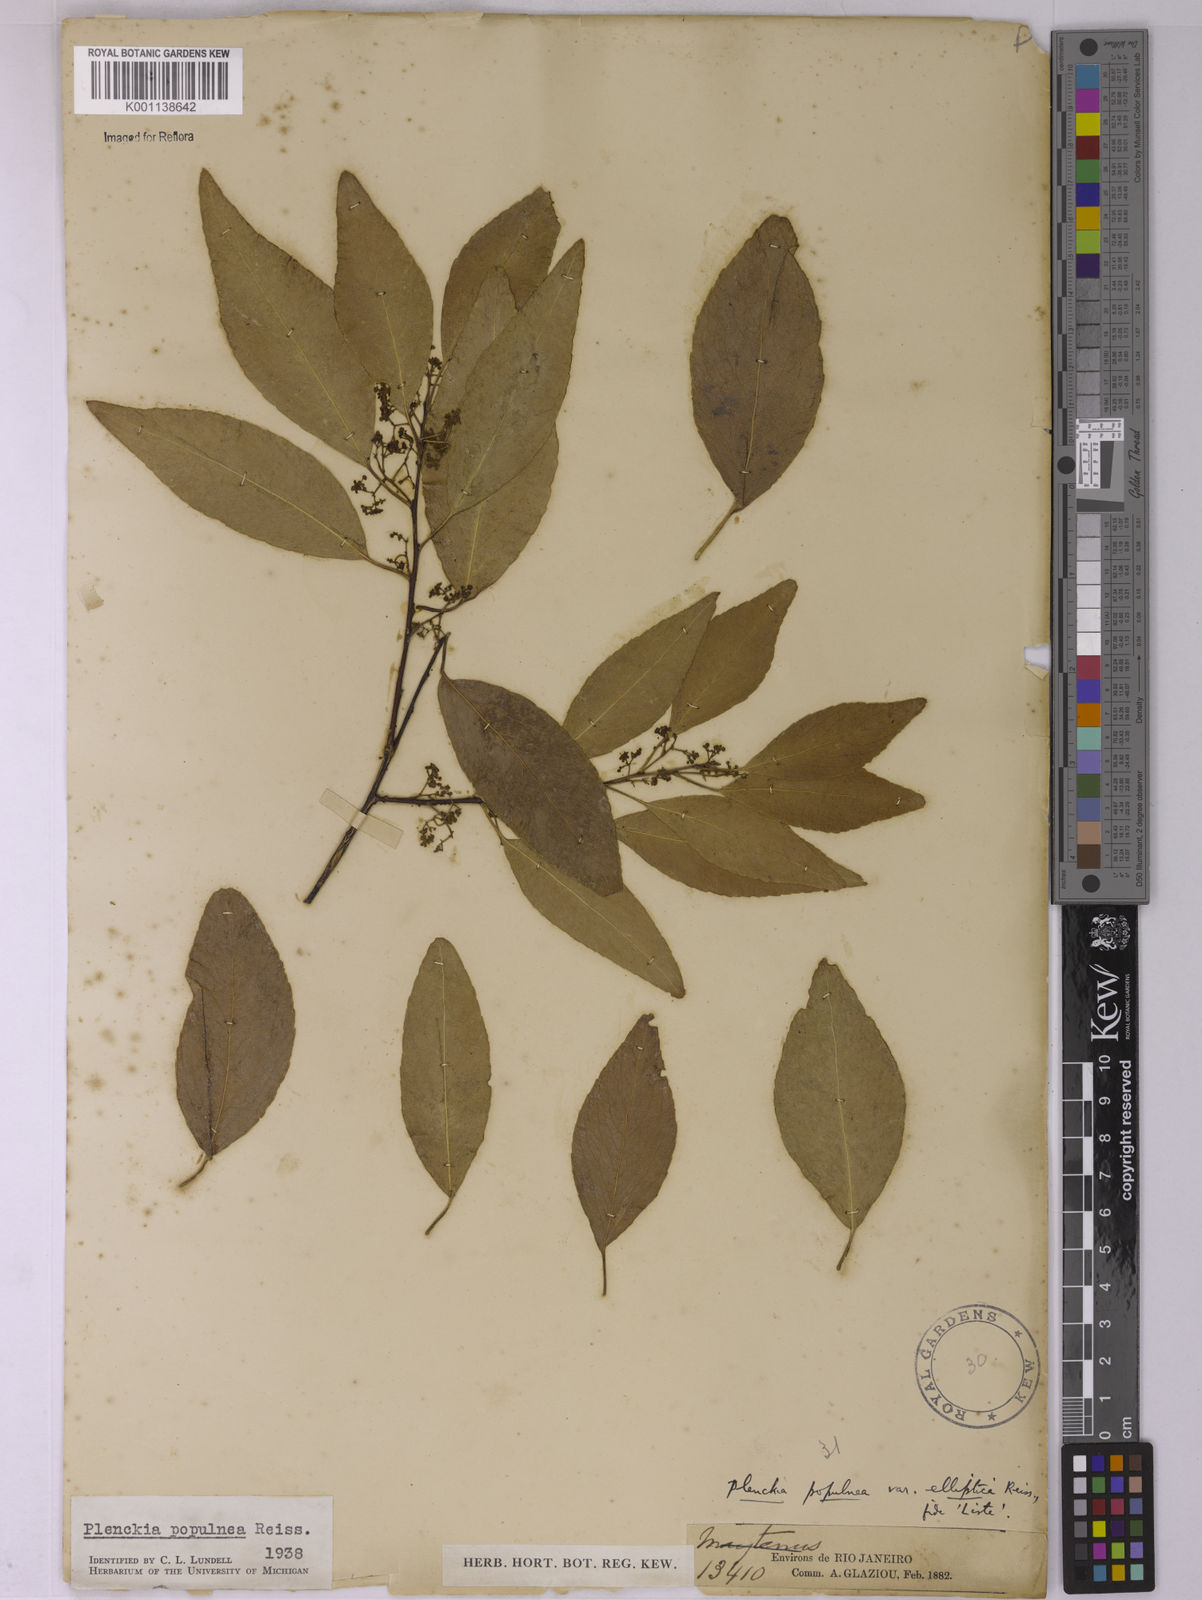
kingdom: Plantae
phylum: Tracheophyta
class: Magnoliopsida
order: Celastrales
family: Celastraceae
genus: Plenckia
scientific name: Plenckia populnea
